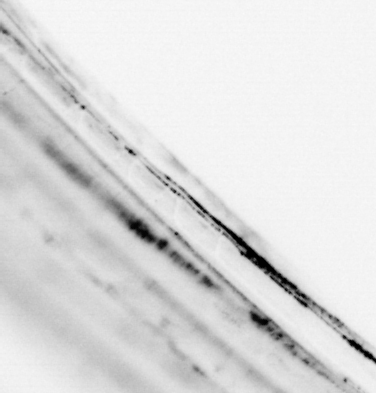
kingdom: Animalia
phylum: Chordata
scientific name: Chordata
